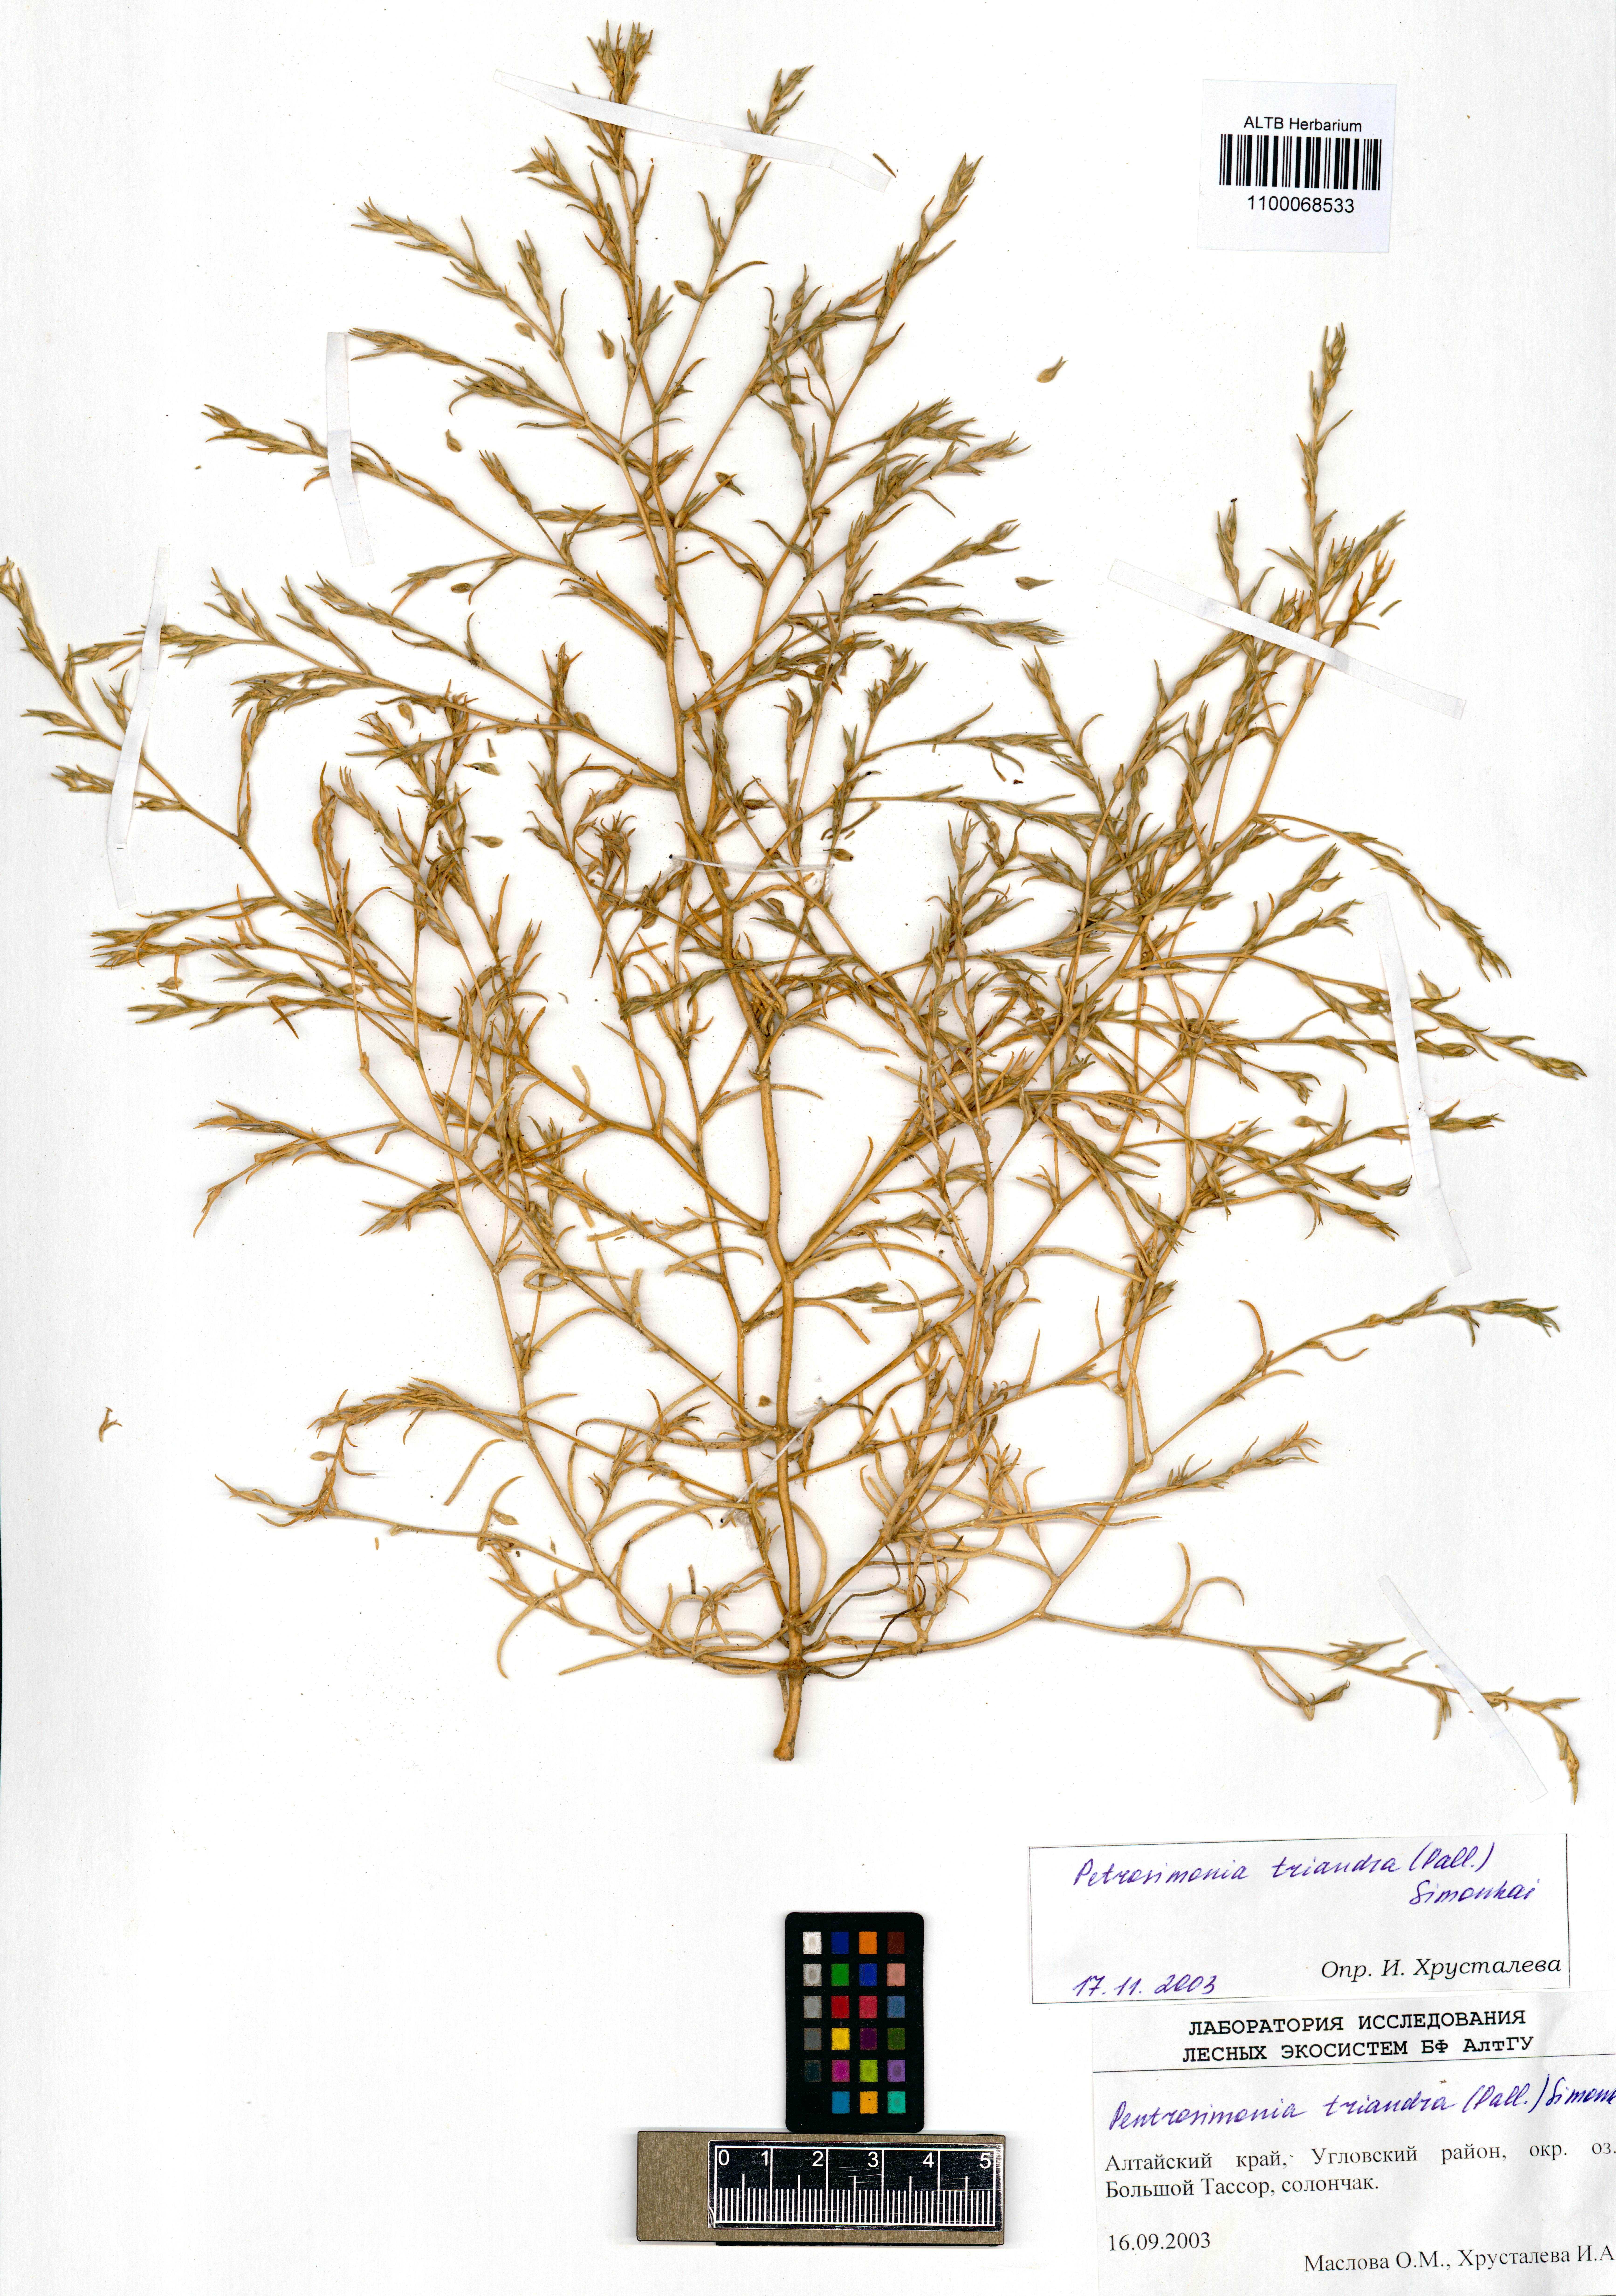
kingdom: Plantae
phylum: Tracheophyta
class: Magnoliopsida
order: Caryophyllales
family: Amaranthaceae
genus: Petrosimonia
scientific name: Petrosimonia triandra
